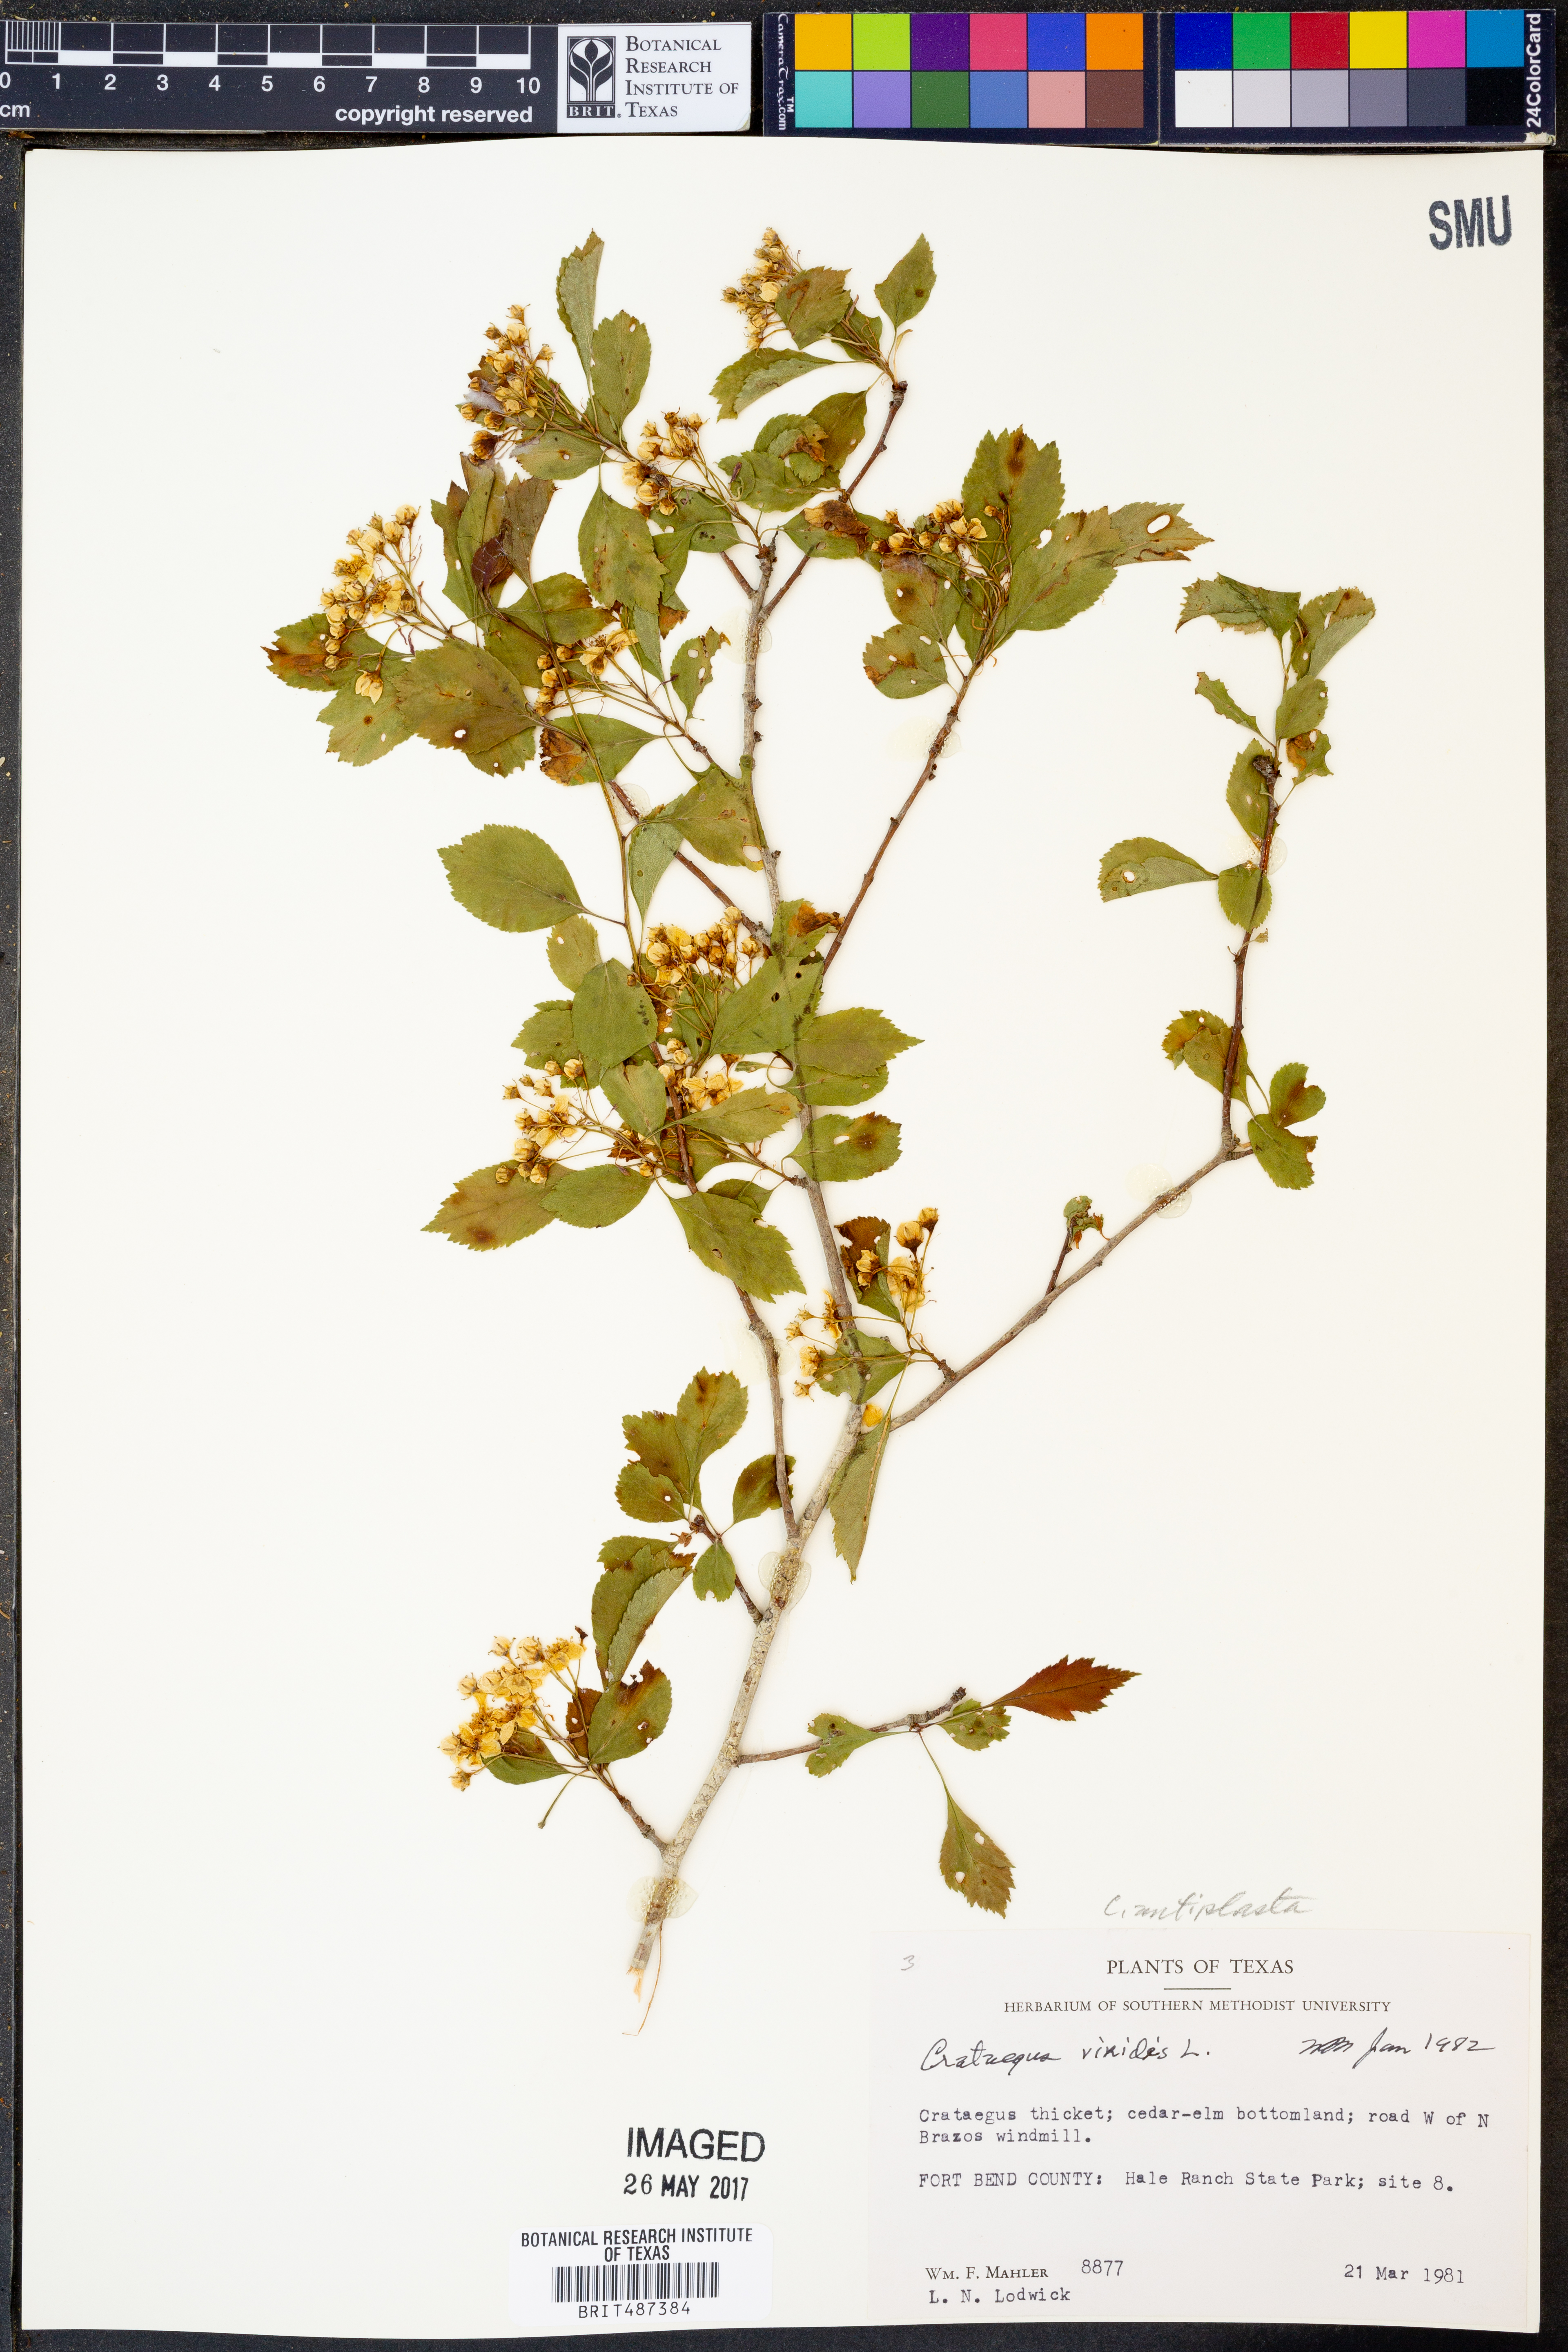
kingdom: Plantae
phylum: Tracheophyta
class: Magnoliopsida
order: Rosales
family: Rosaceae
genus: Crataegus
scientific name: Crataegus viridis
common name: Southernthorn
